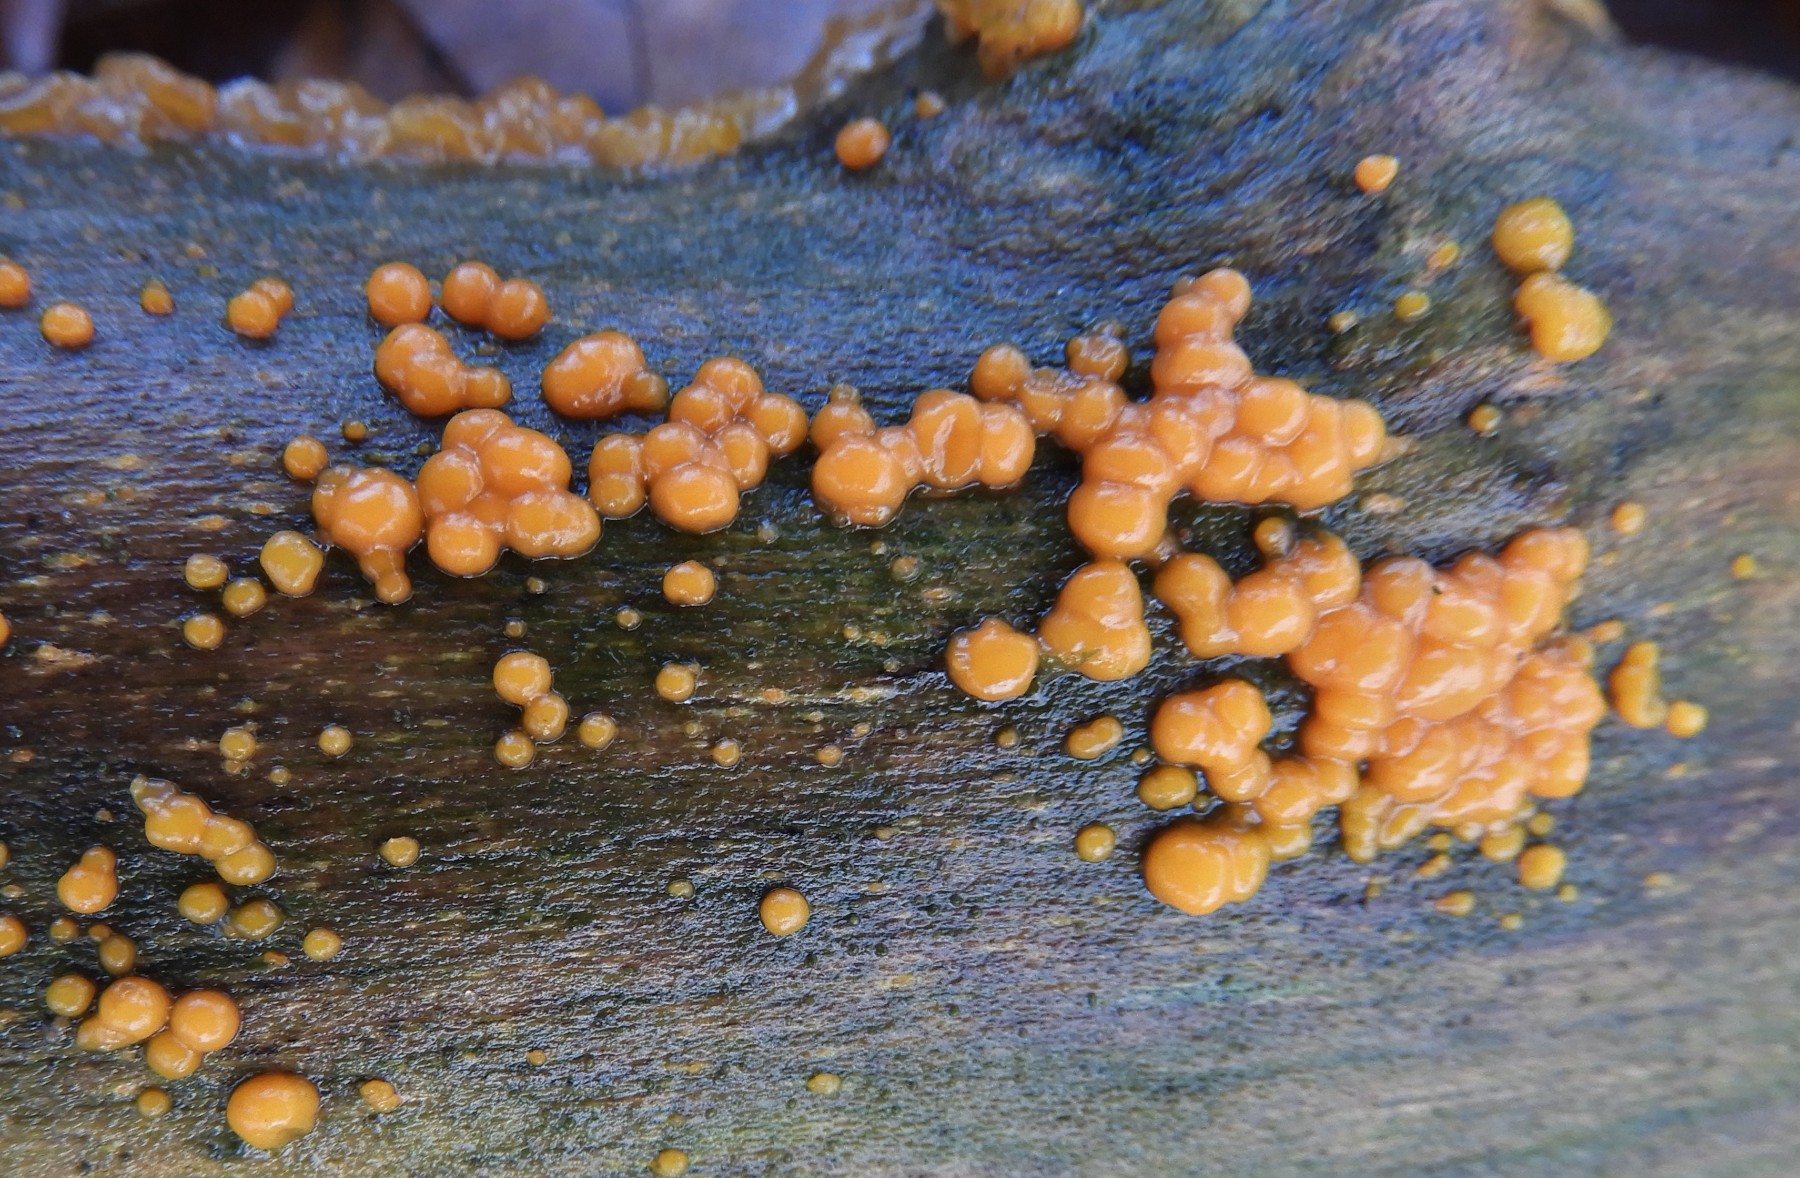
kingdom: Fungi
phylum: Basidiomycota
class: Dacrymycetes
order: Dacrymycetales
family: Dacrymycetaceae
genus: Dacrymyces
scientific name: Dacrymyces stillatus
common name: almindelig tåresvamp
